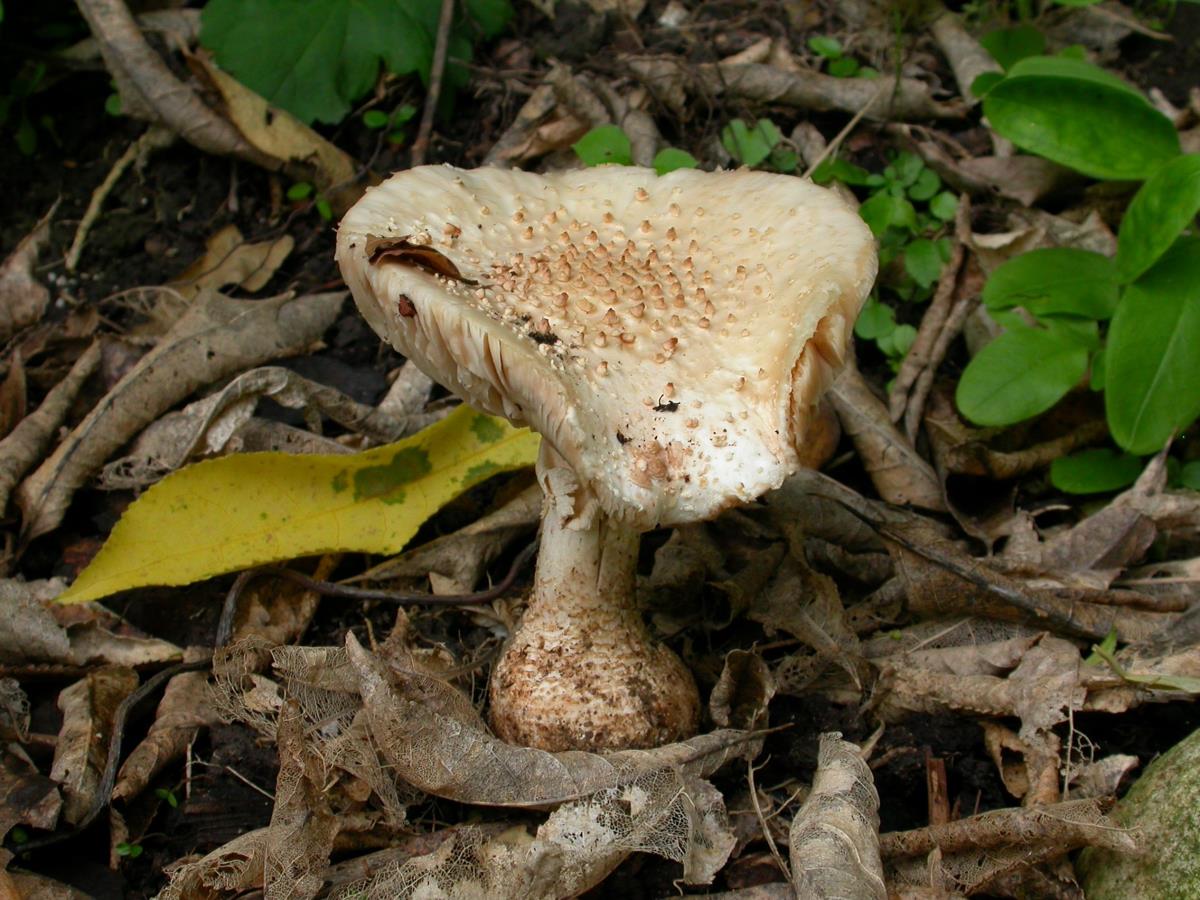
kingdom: Fungi
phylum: Basidiomycota
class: Agaricomycetes
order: Agaricales
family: Amanitaceae
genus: Amanita
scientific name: Amanita pareparina
